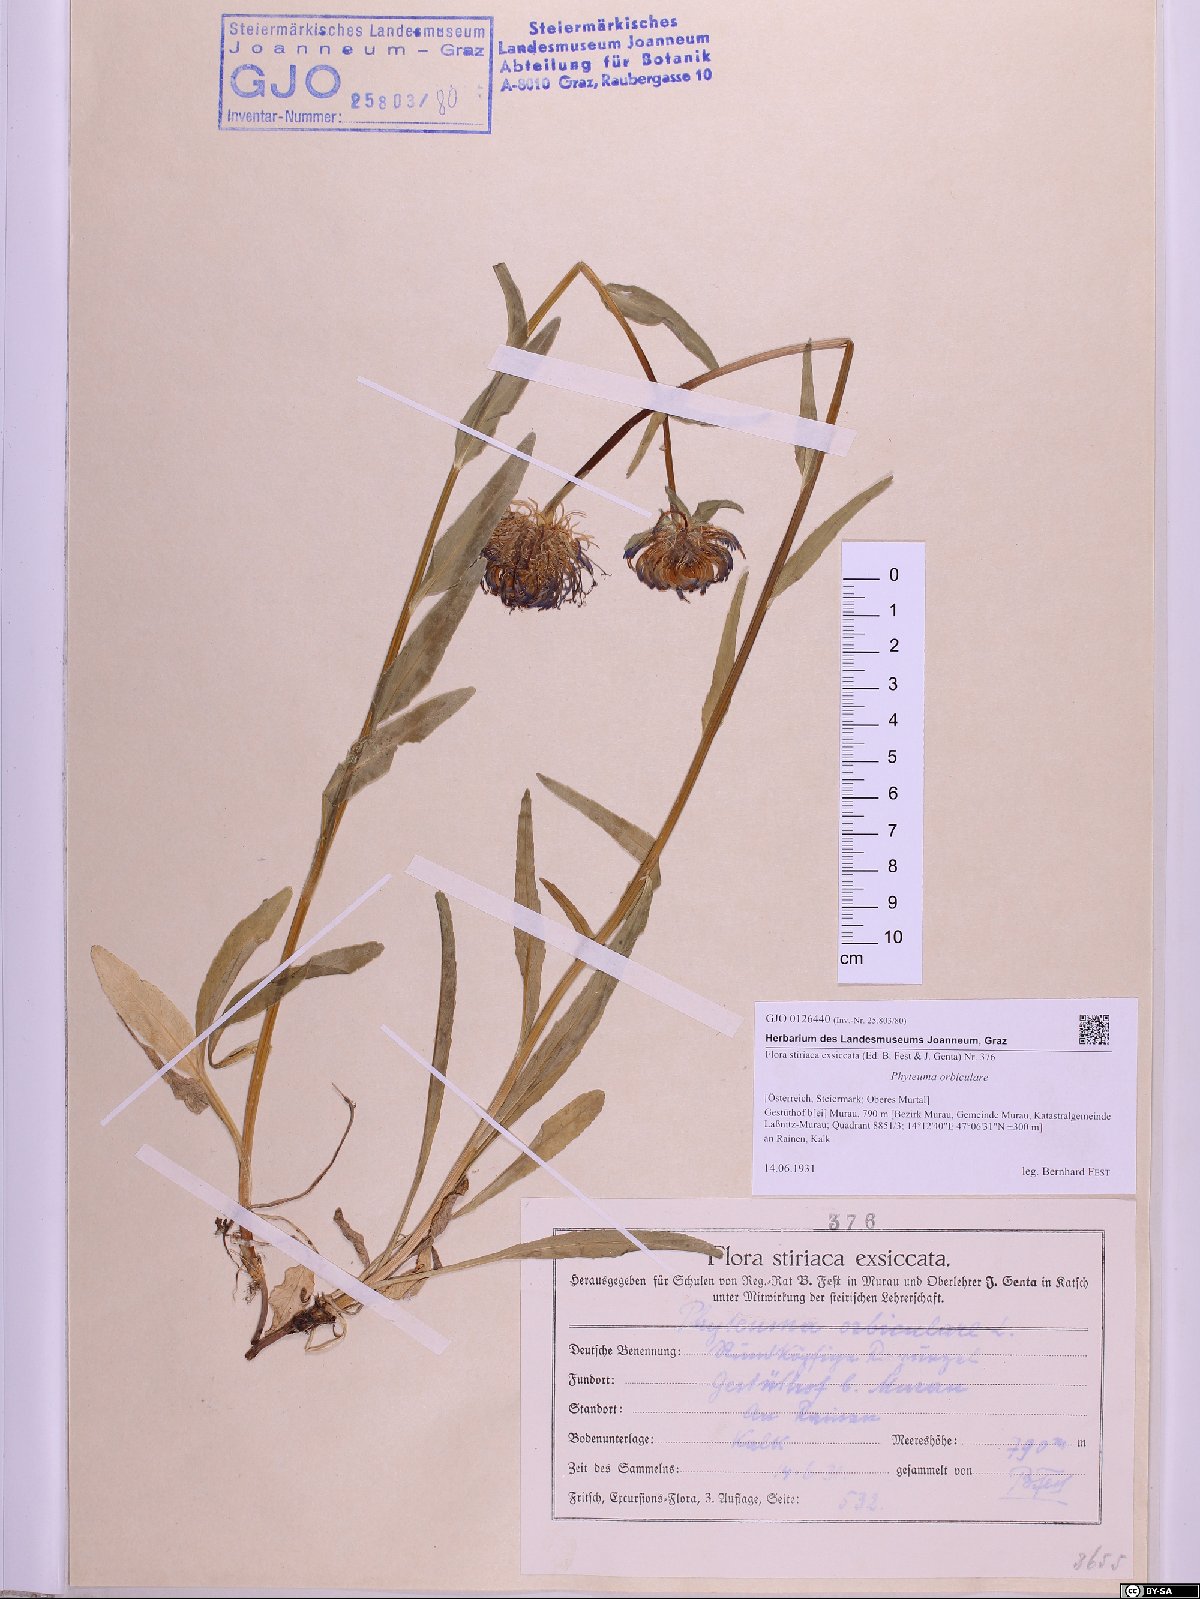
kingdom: Plantae
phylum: Tracheophyta
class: Magnoliopsida
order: Asterales
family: Campanulaceae
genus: Phyteuma
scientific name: Phyteuma orbiculare
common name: Round-headed rampion
